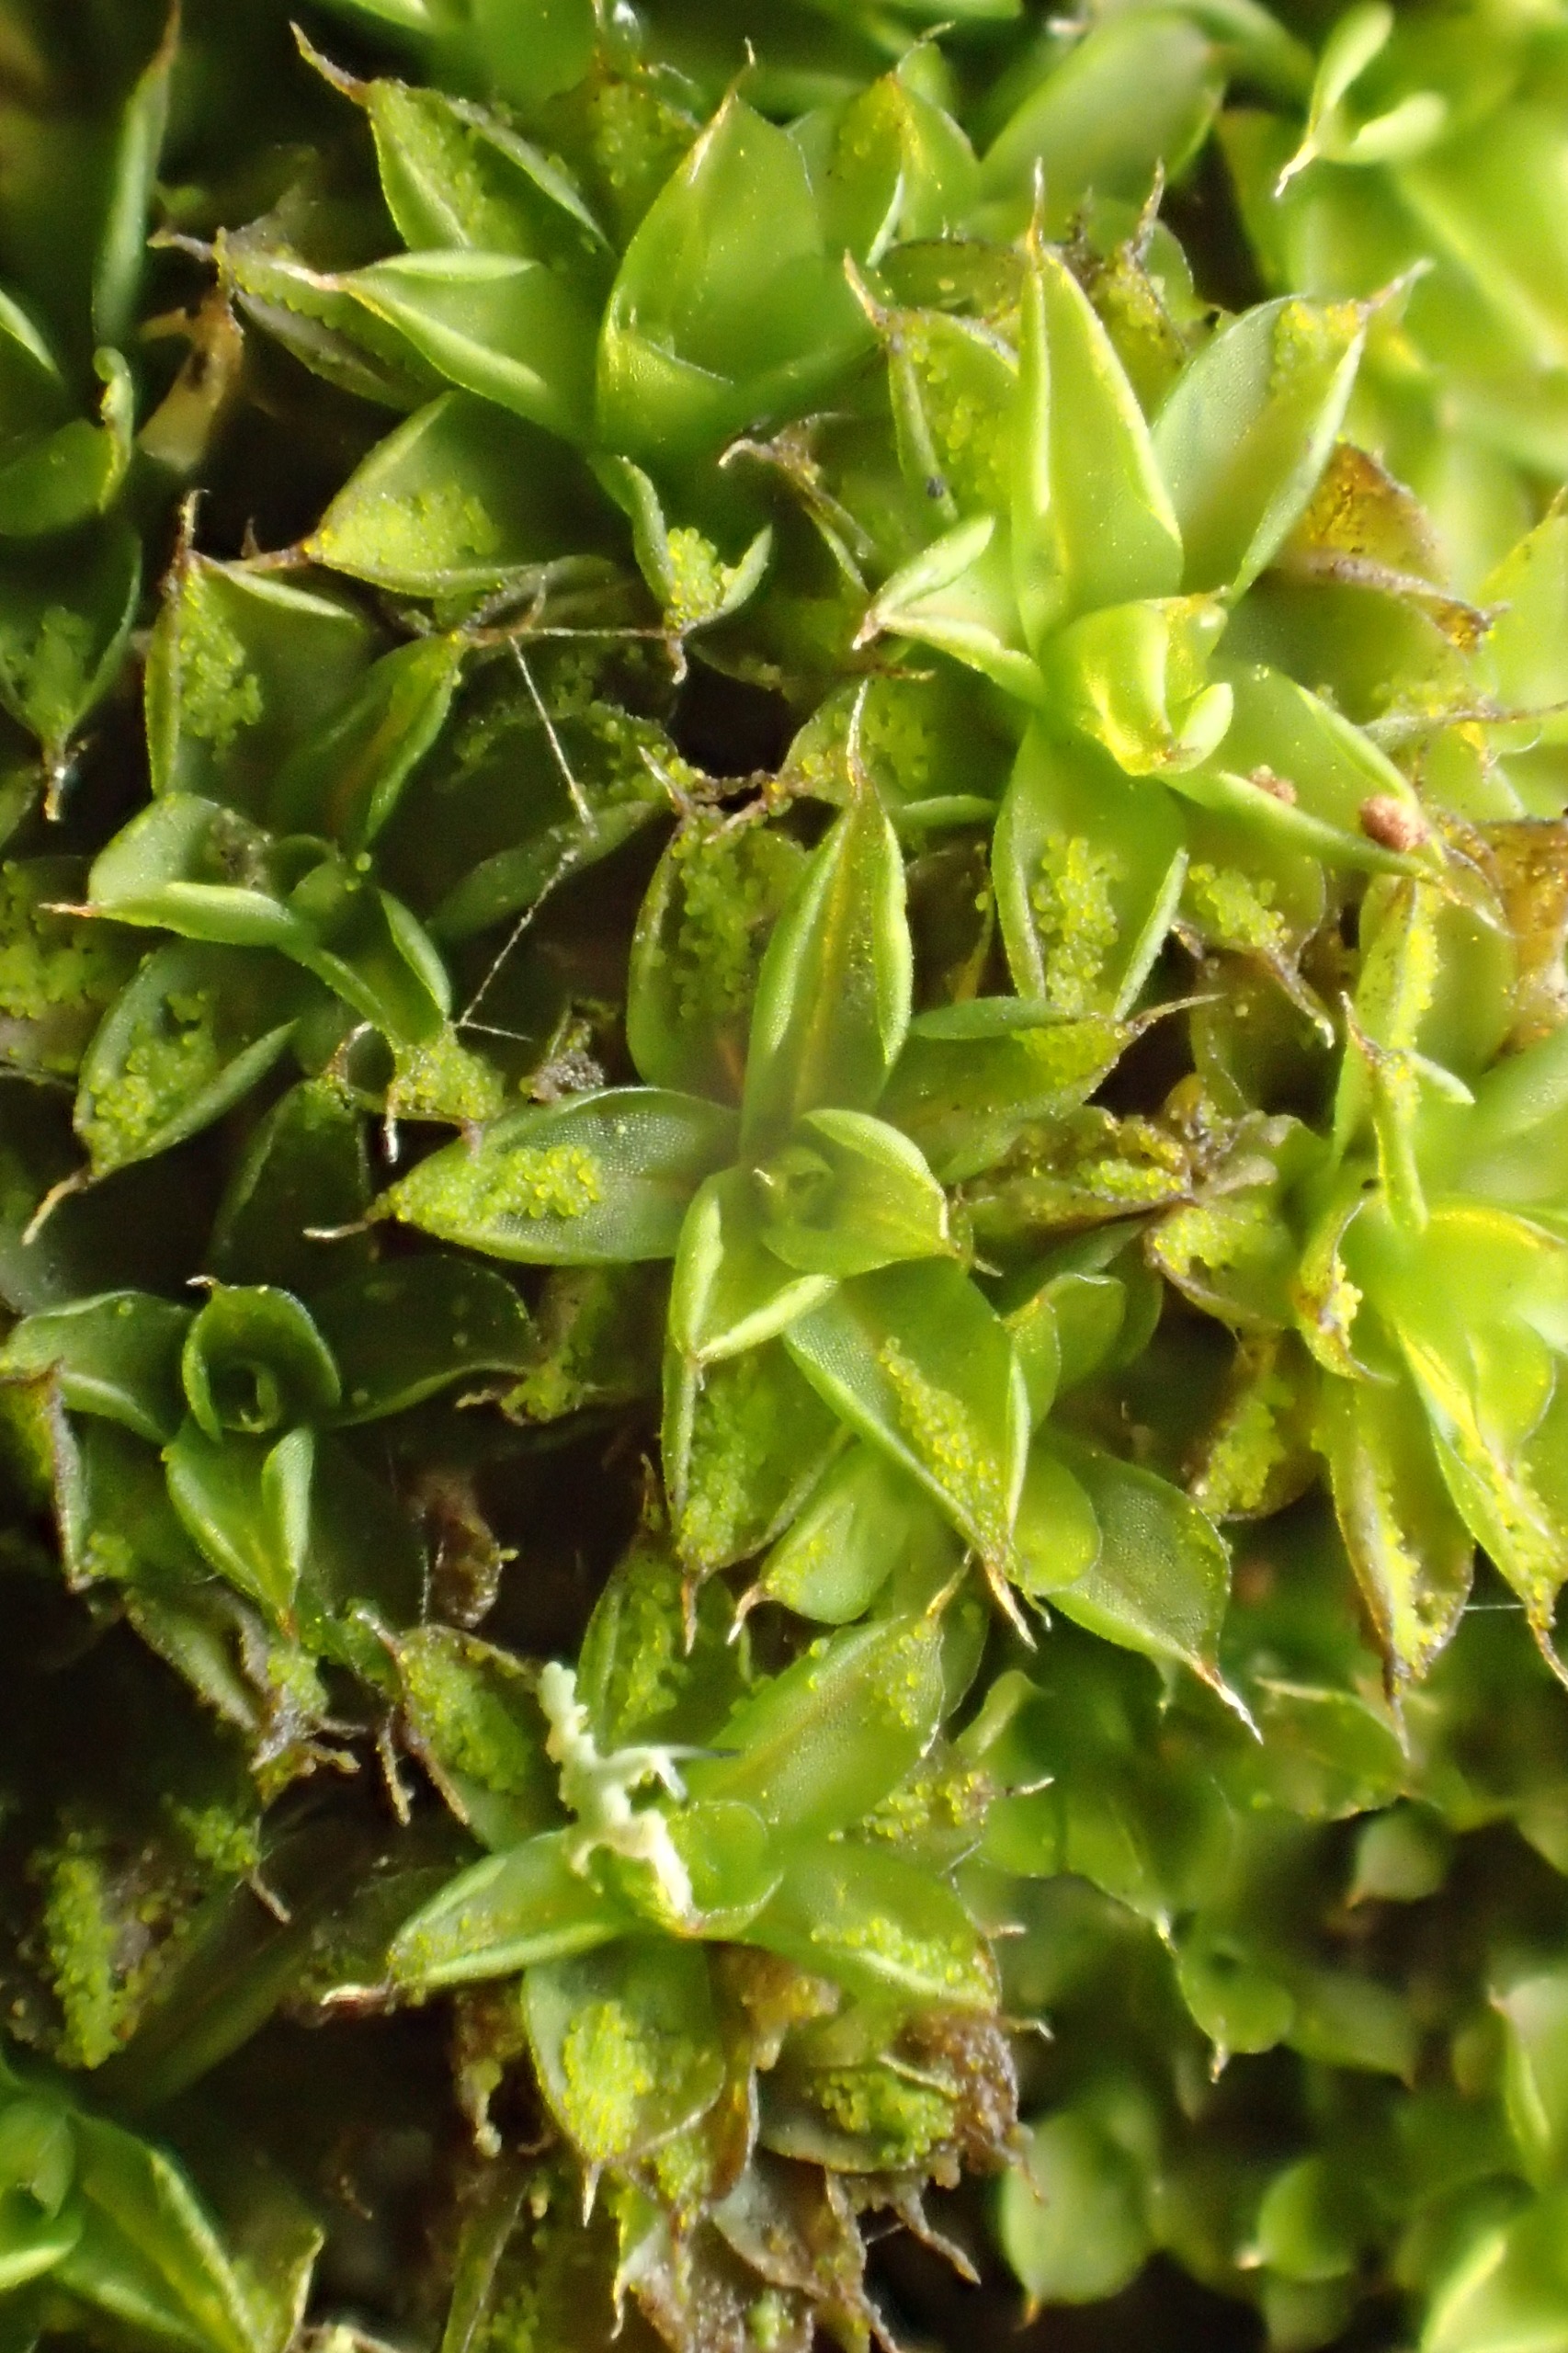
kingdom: Plantae
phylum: Bryophyta
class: Bryopsida
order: Pottiales
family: Pottiaceae
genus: Syntrichia
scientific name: Syntrichia papillosa
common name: Bark-hårstjerne
